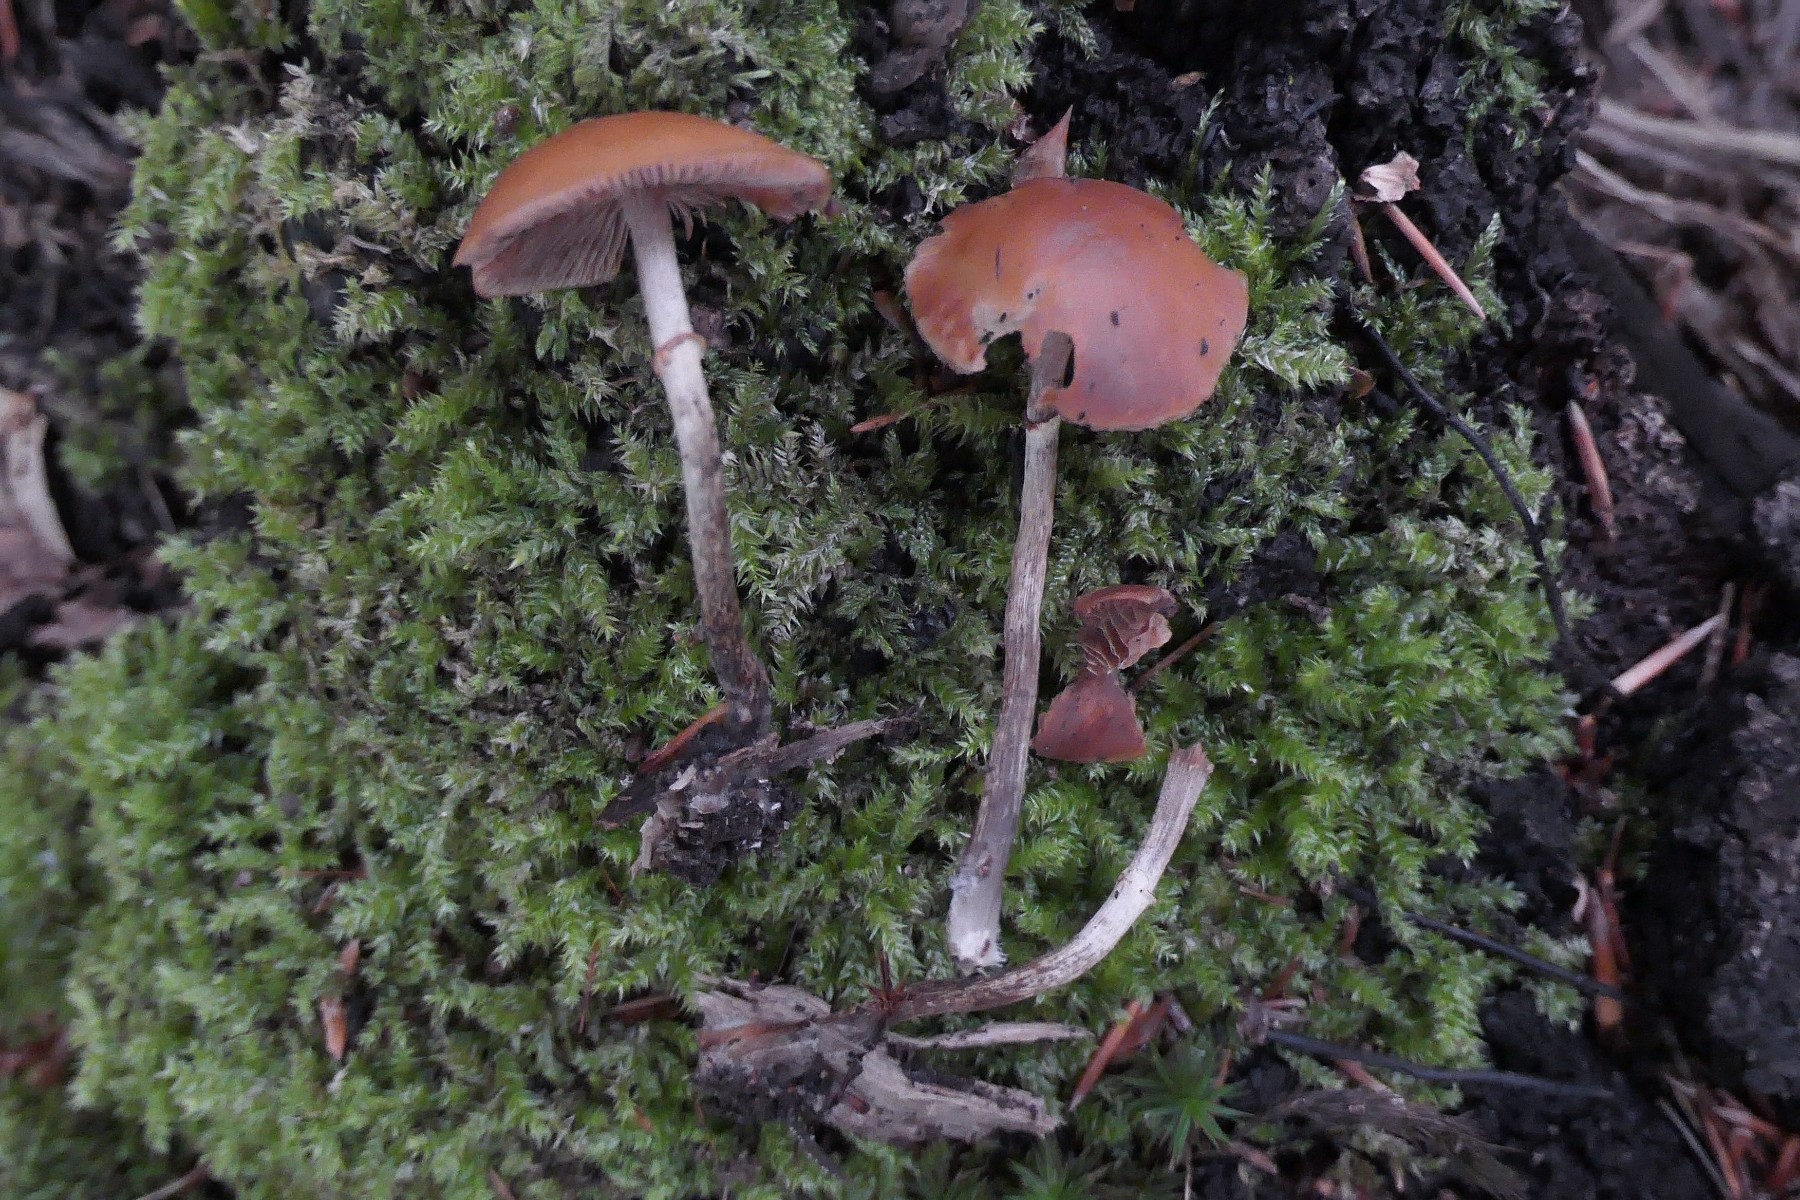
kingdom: Fungi
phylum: Basidiomycota
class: Agaricomycetes
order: Agaricales
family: Hymenogastraceae
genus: Galerina
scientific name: Galerina marginata
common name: randbæltet hjelmhat
